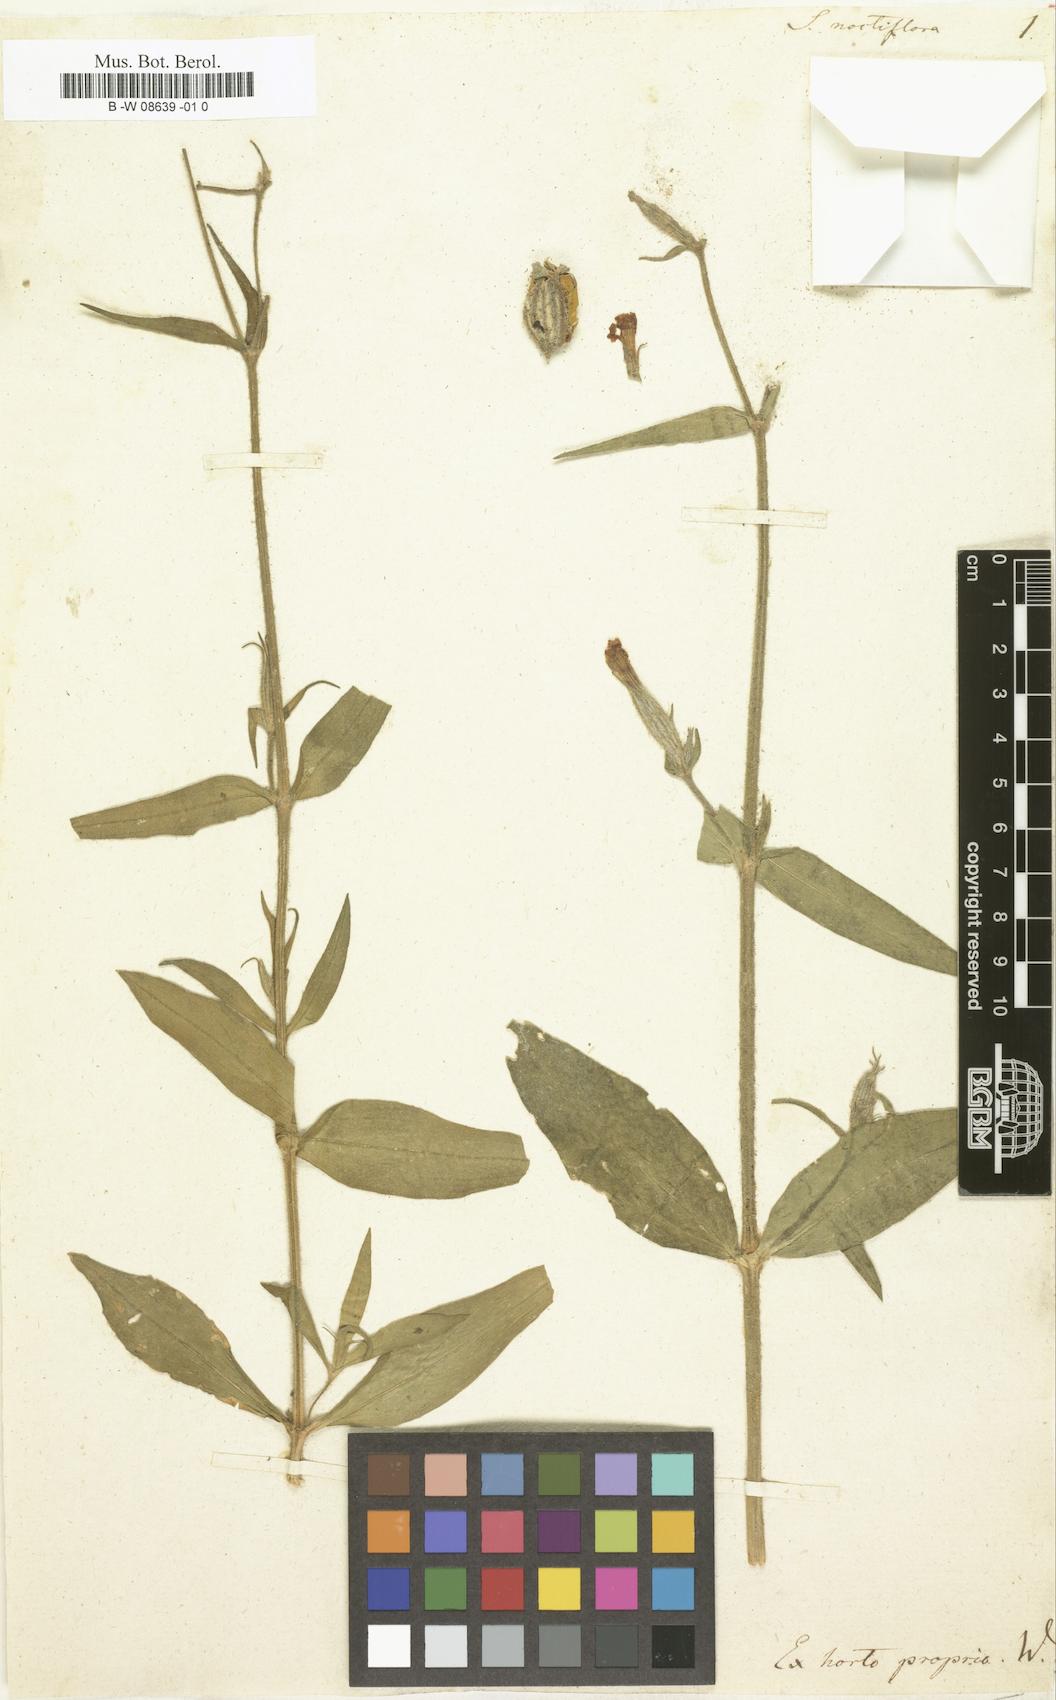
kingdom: Plantae
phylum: Tracheophyta
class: Magnoliopsida
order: Caryophyllales
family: Caryophyllaceae
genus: Silene
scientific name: Silene noctiflora
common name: Night-flowering catchfly
